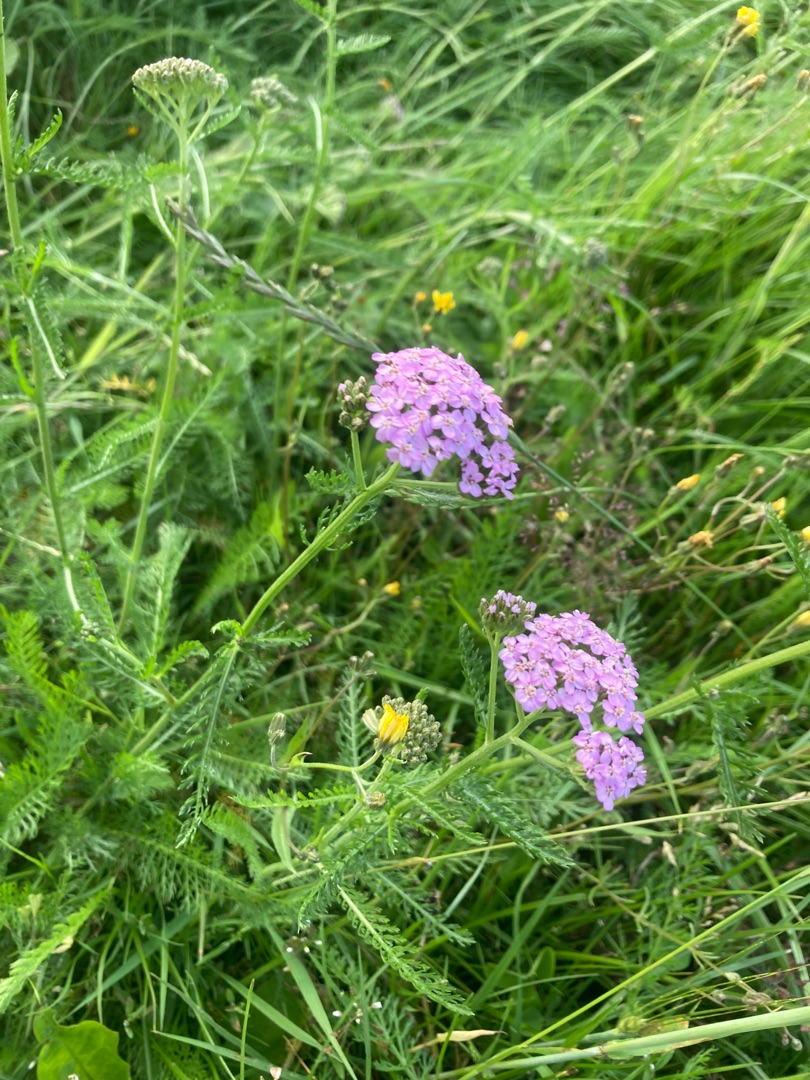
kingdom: Plantae
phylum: Tracheophyta
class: Magnoliopsida
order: Asterales
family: Asteraceae
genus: Achillea
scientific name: Achillea millefolium
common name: Almindelig røllike
